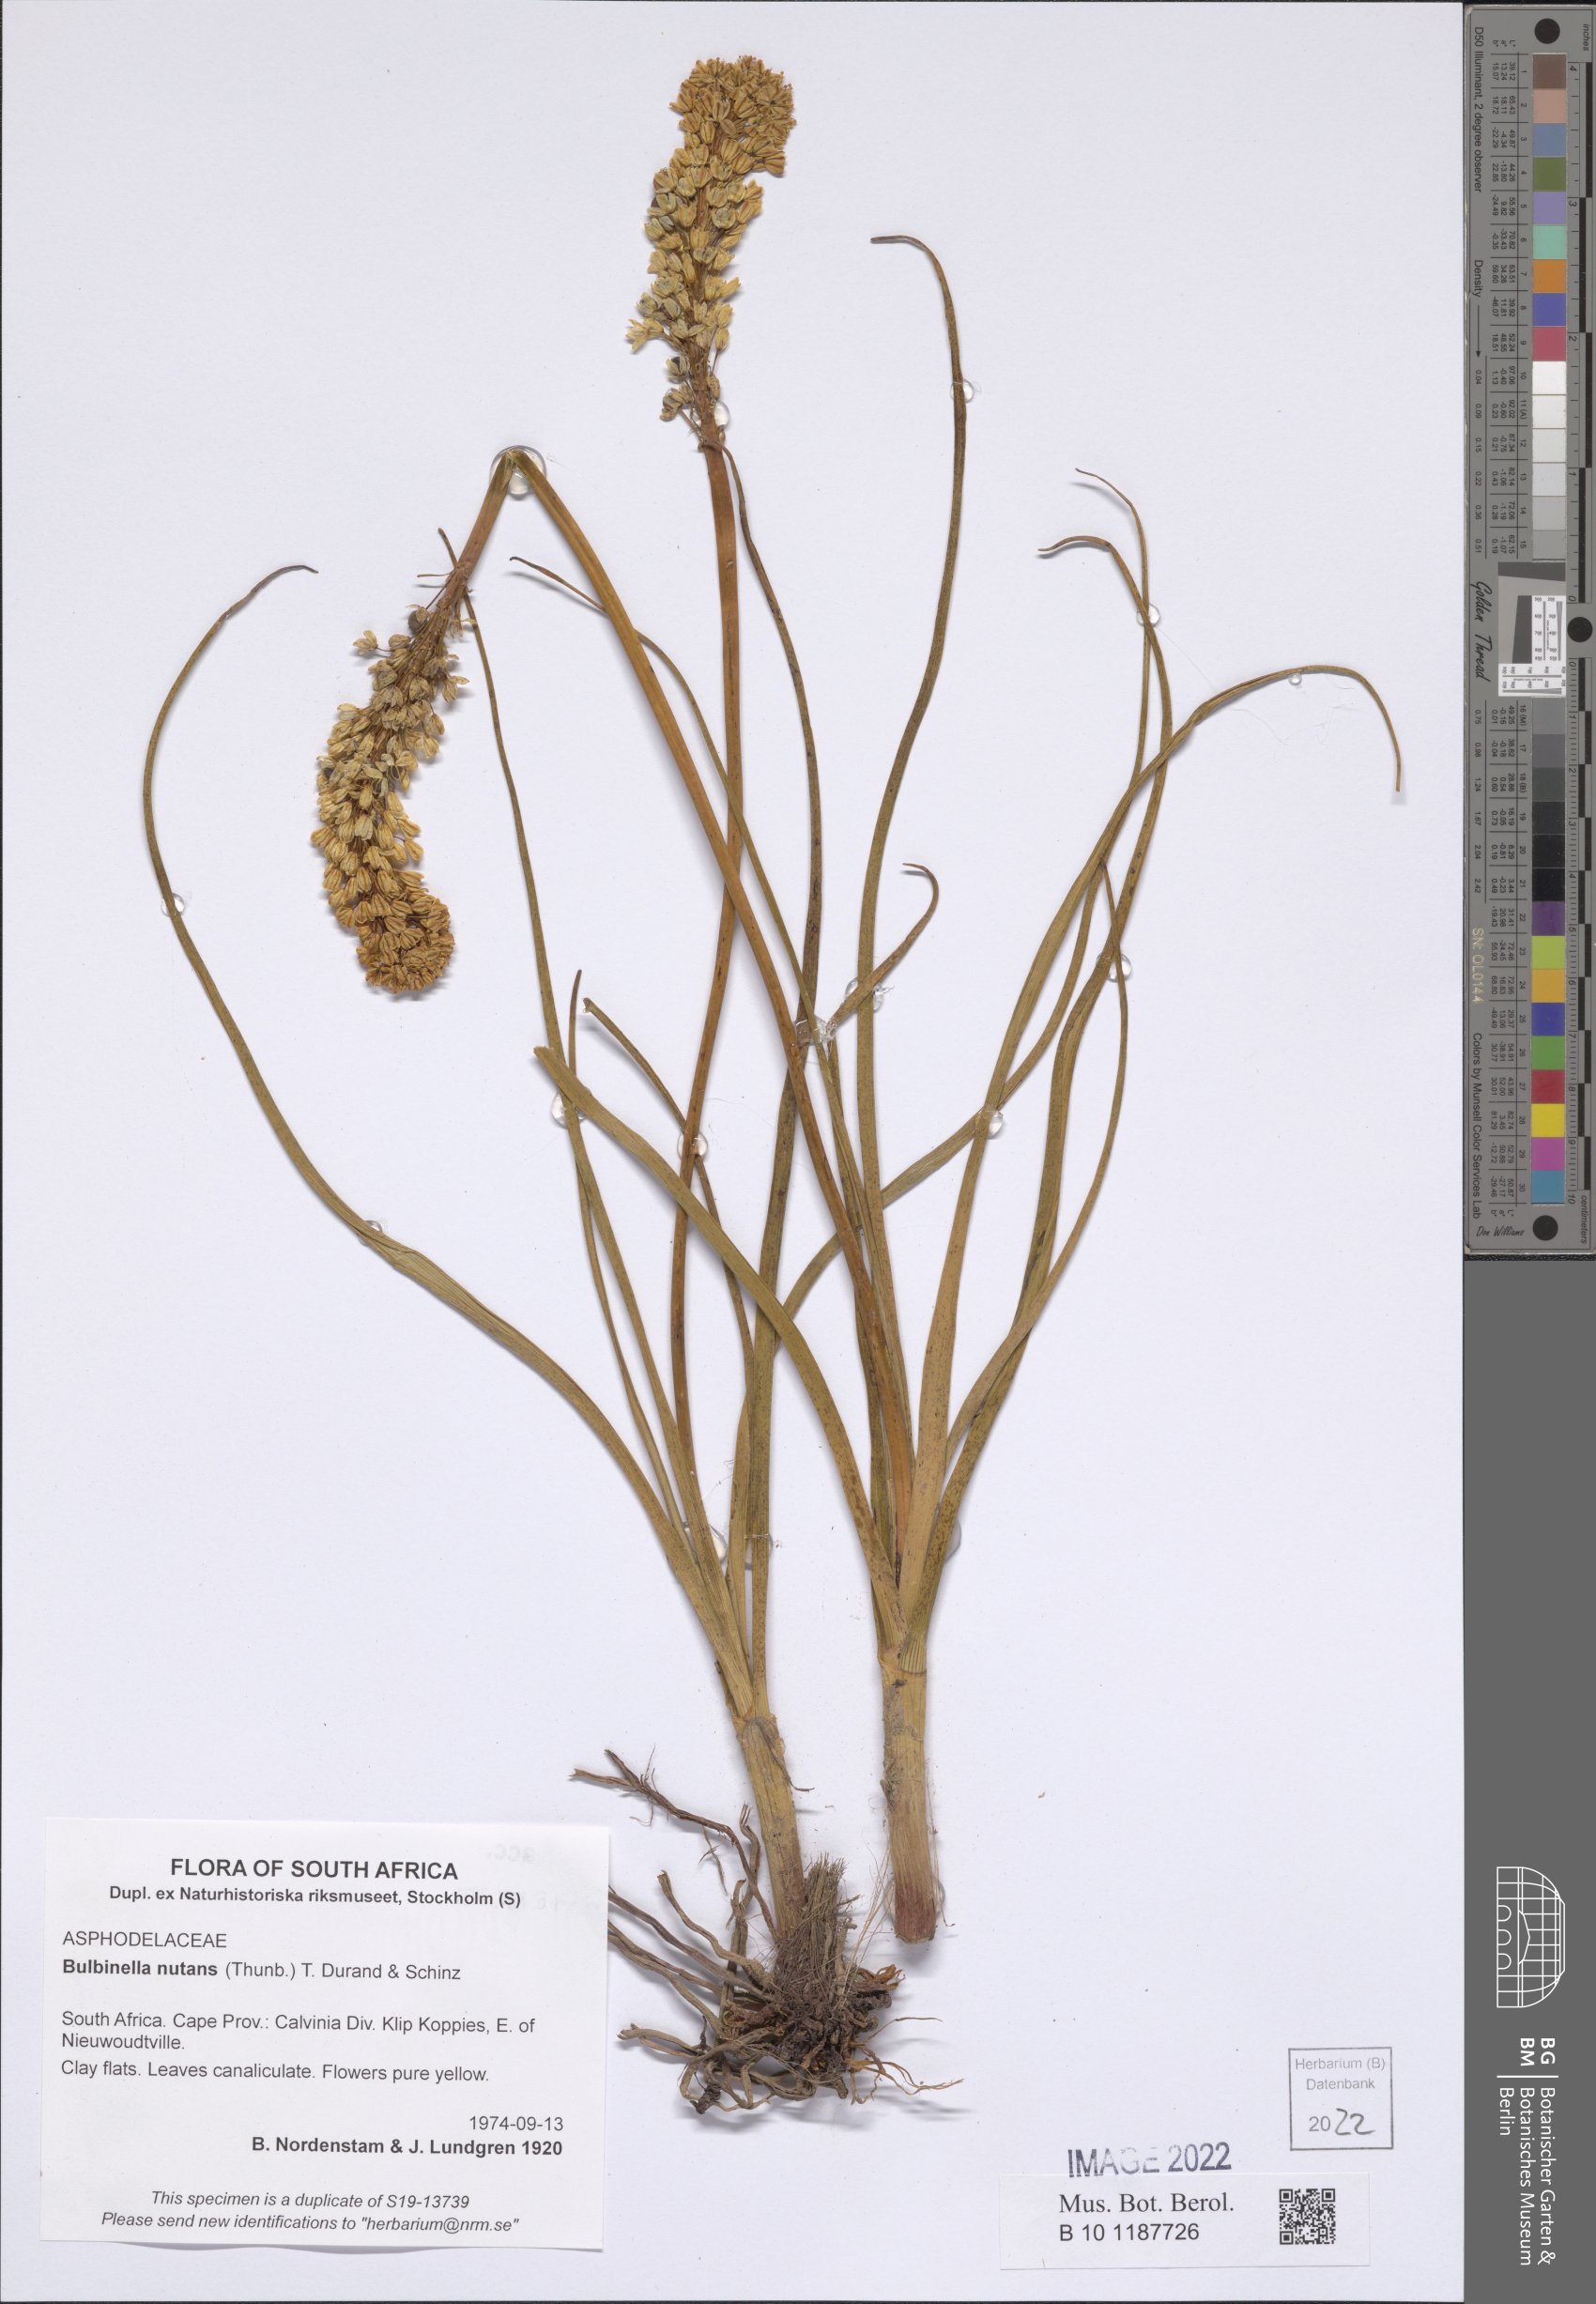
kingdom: Plantae
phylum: Tracheophyta
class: Liliopsida
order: Asparagales
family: Asphodelaceae
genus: Bulbinella
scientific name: Bulbinella nutans
